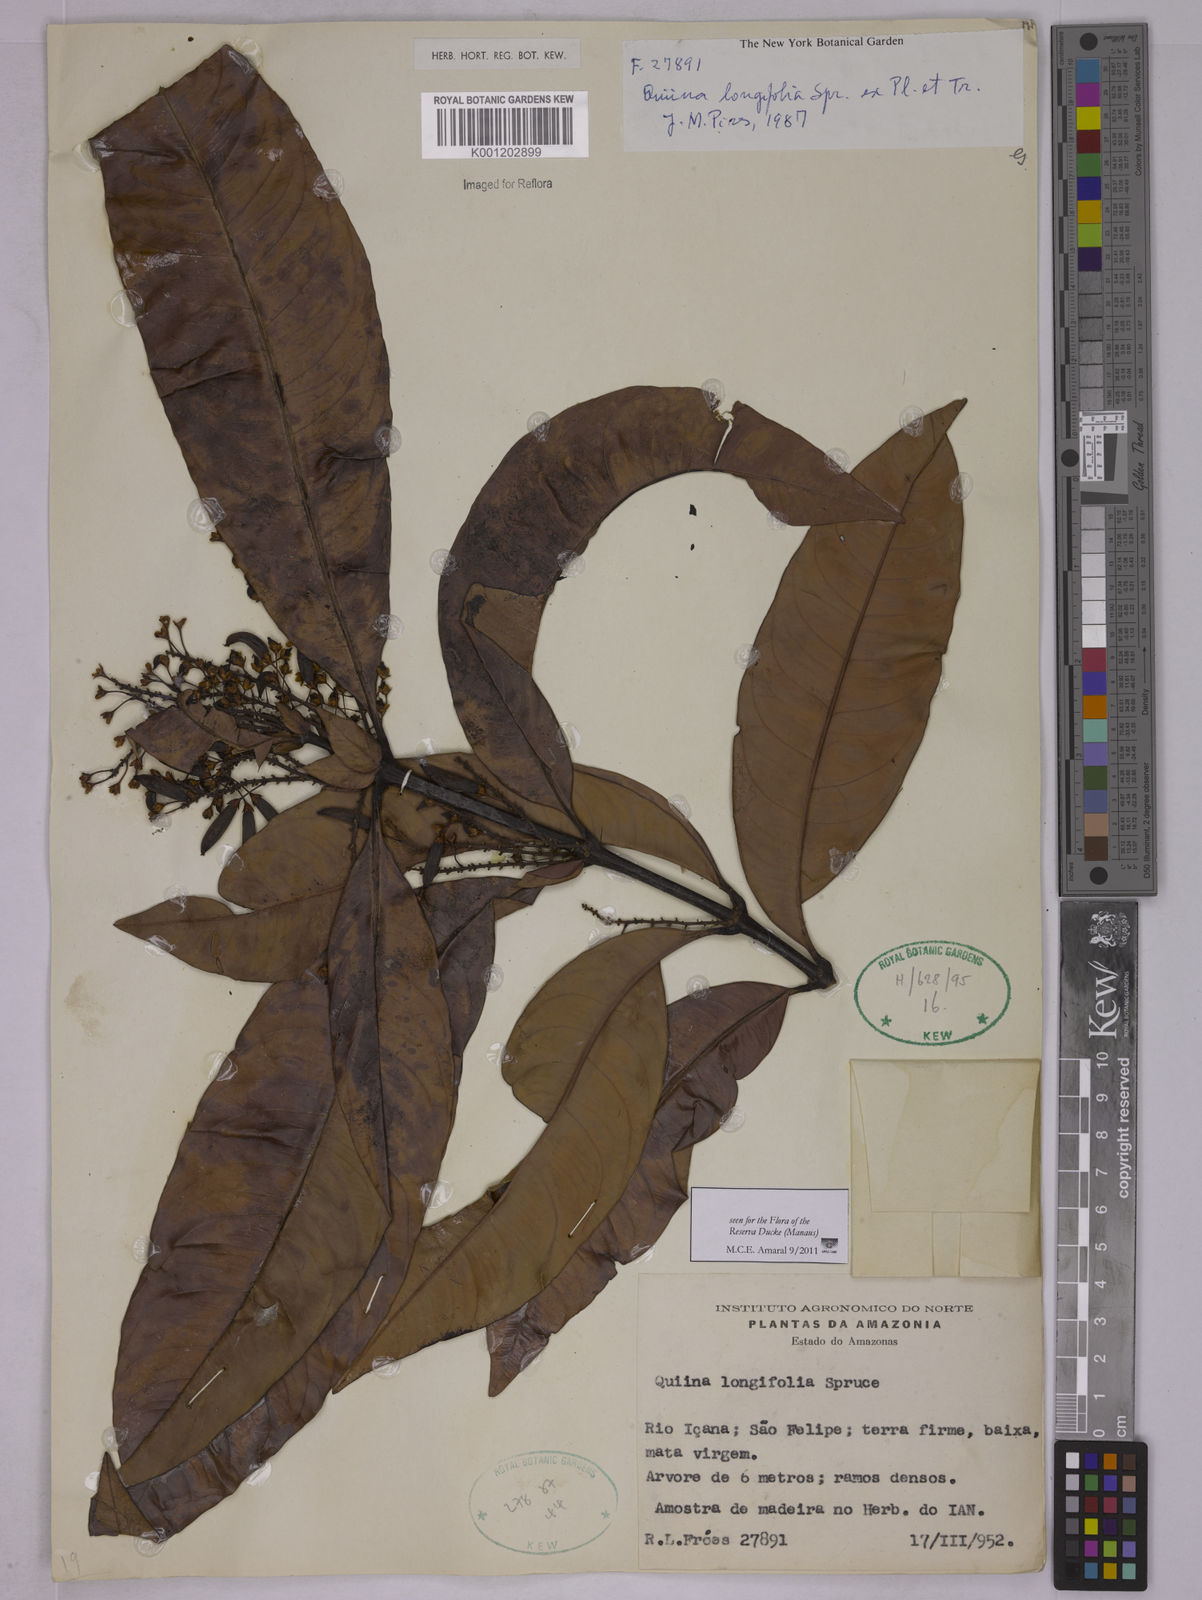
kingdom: Plantae
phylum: Tracheophyta
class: Magnoliopsida
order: Malpighiales
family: Quiinaceae
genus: Quiina
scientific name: Quiina florida
